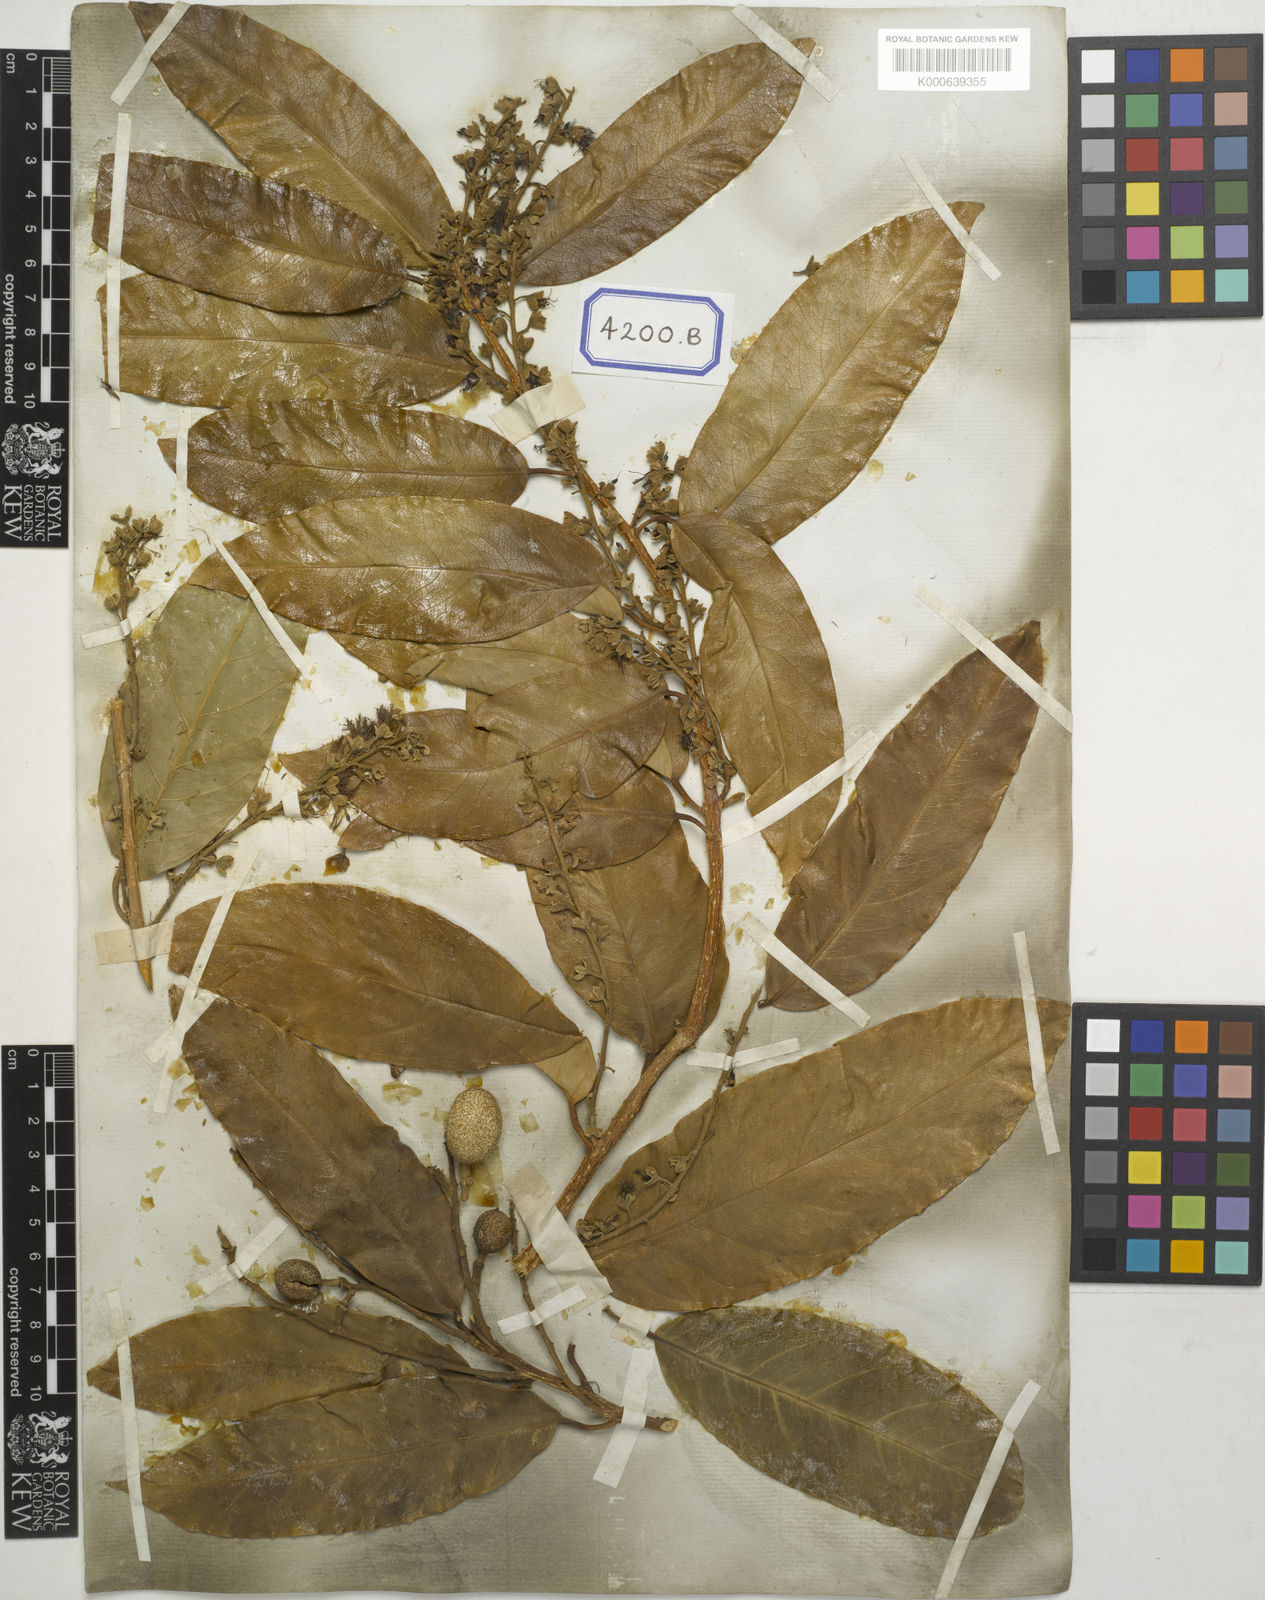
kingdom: Plantae
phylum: Tracheophyta
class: Magnoliopsida
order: Brassicales
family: Stixaceae
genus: Stixis
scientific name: Stixis suaveolens
